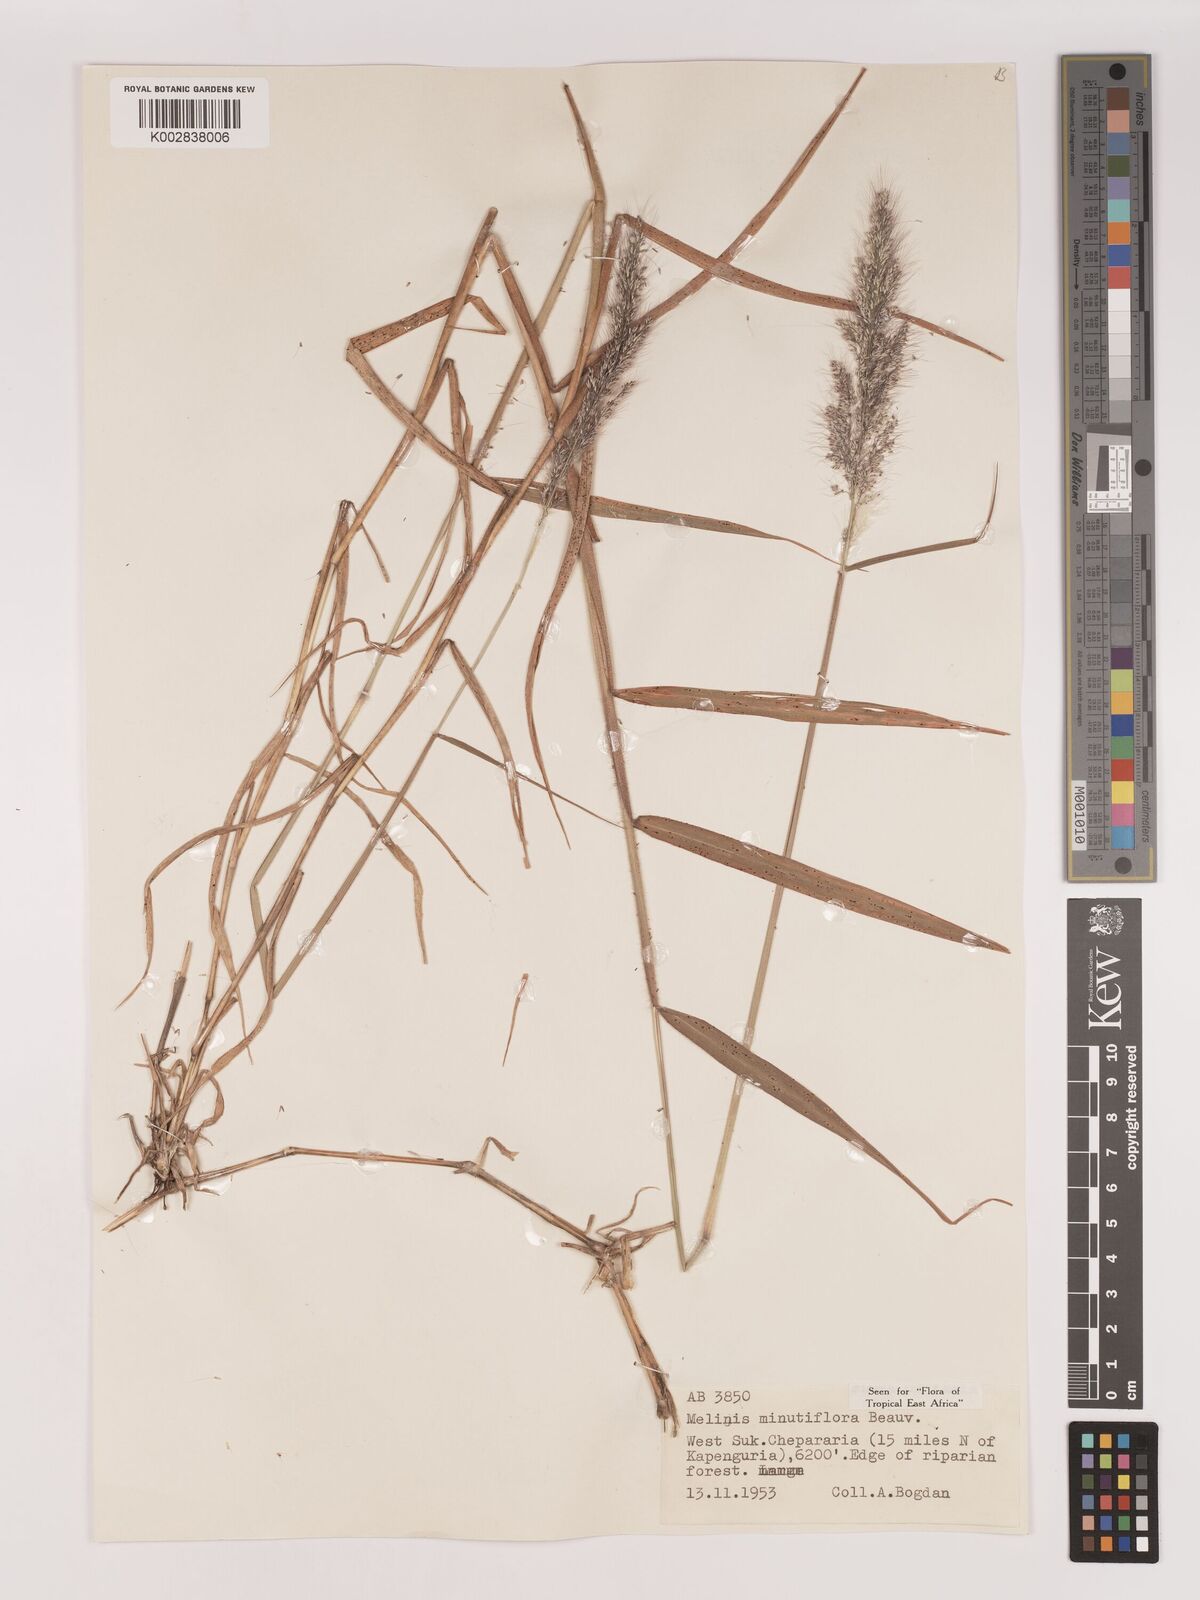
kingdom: Plantae
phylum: Tracheophyta
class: Liliopsida
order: Poales
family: Poaceae
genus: Melinis
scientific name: Melinis minutiflora
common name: Molassesgrass
